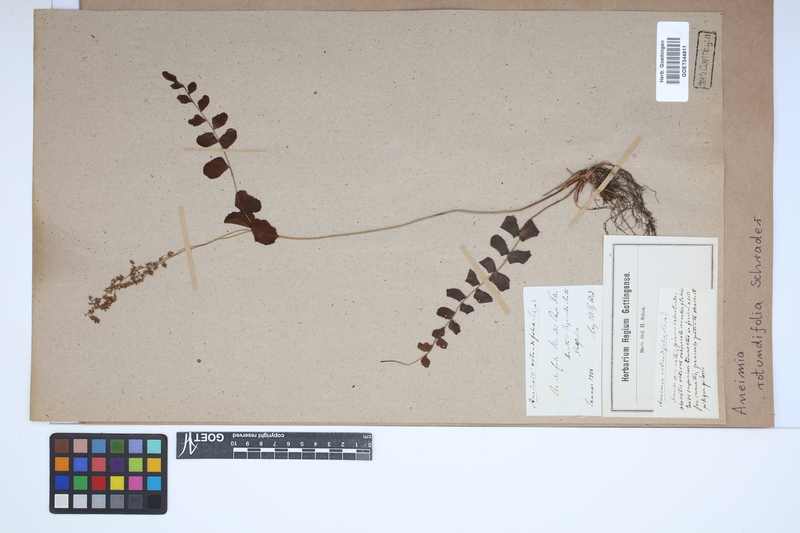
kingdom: Plantae
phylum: Tracheophyta
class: Polypodiopsida
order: Schizaeales
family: Anemiaceae
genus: Anemia
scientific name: Anemia rotundifolia
